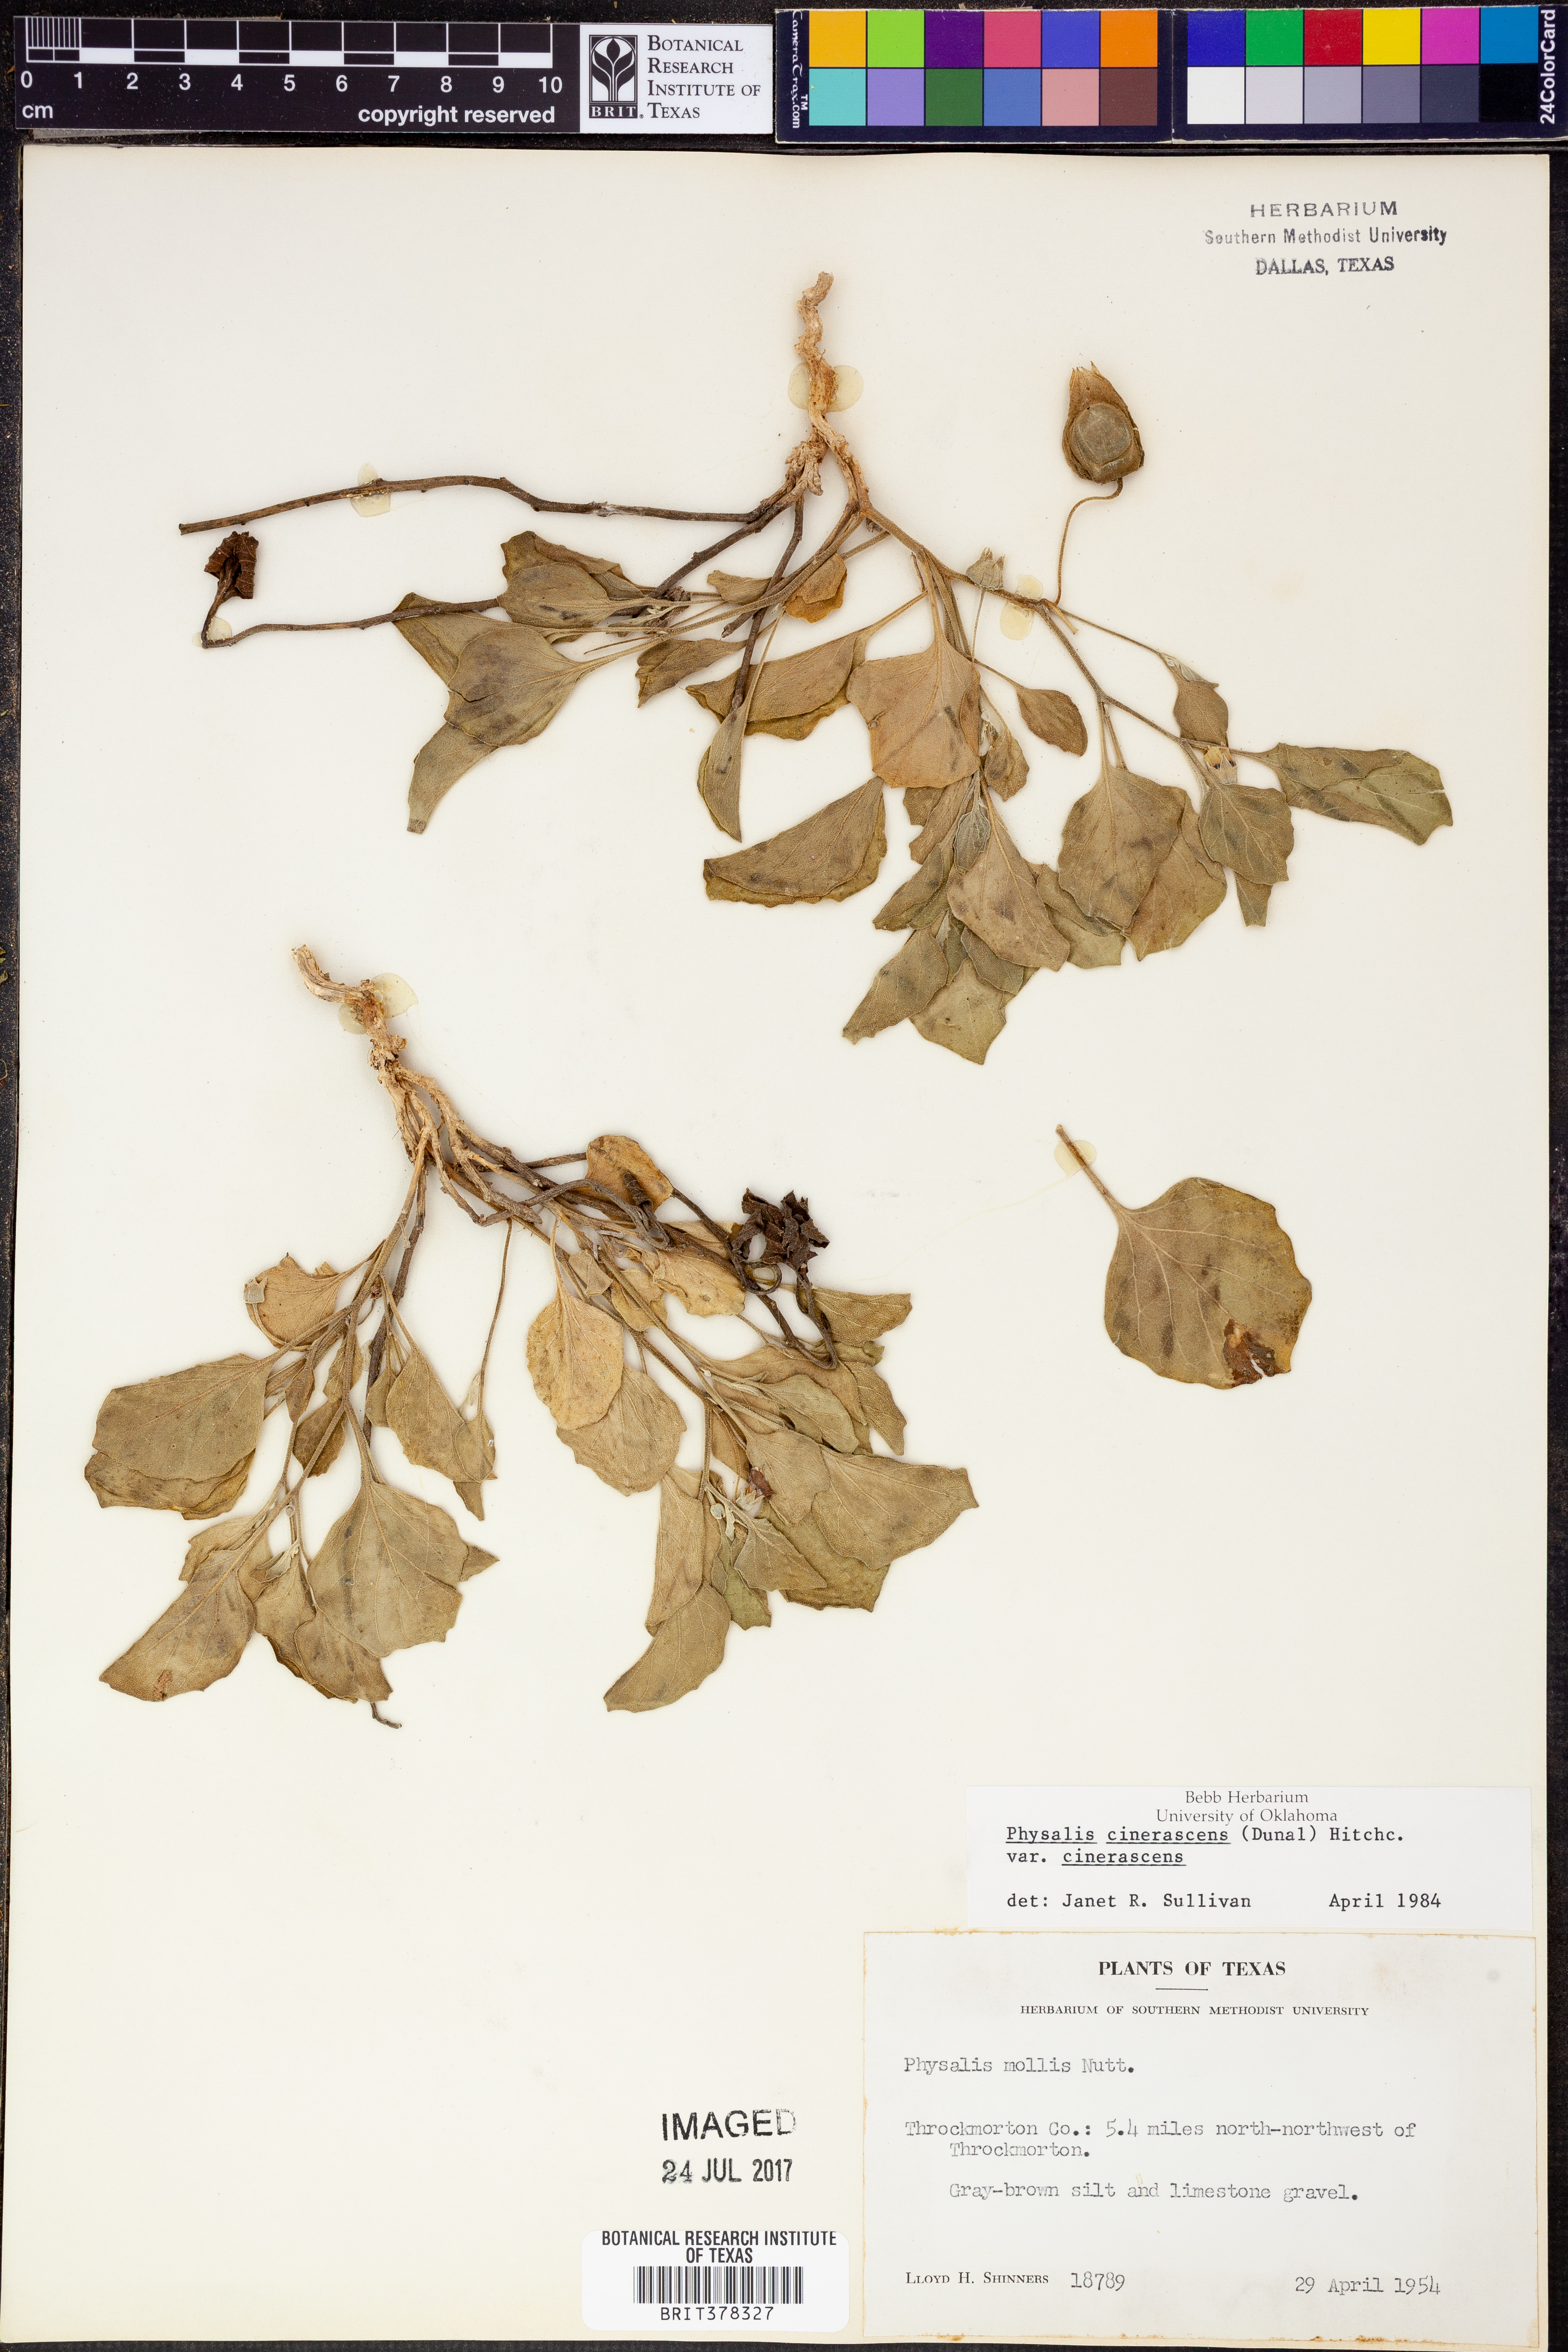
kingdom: Plantae
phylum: Tracheophyta
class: Magnoliopsida
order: Solanales
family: Solanaceae
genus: Physalis
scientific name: Physalis cinerascens
